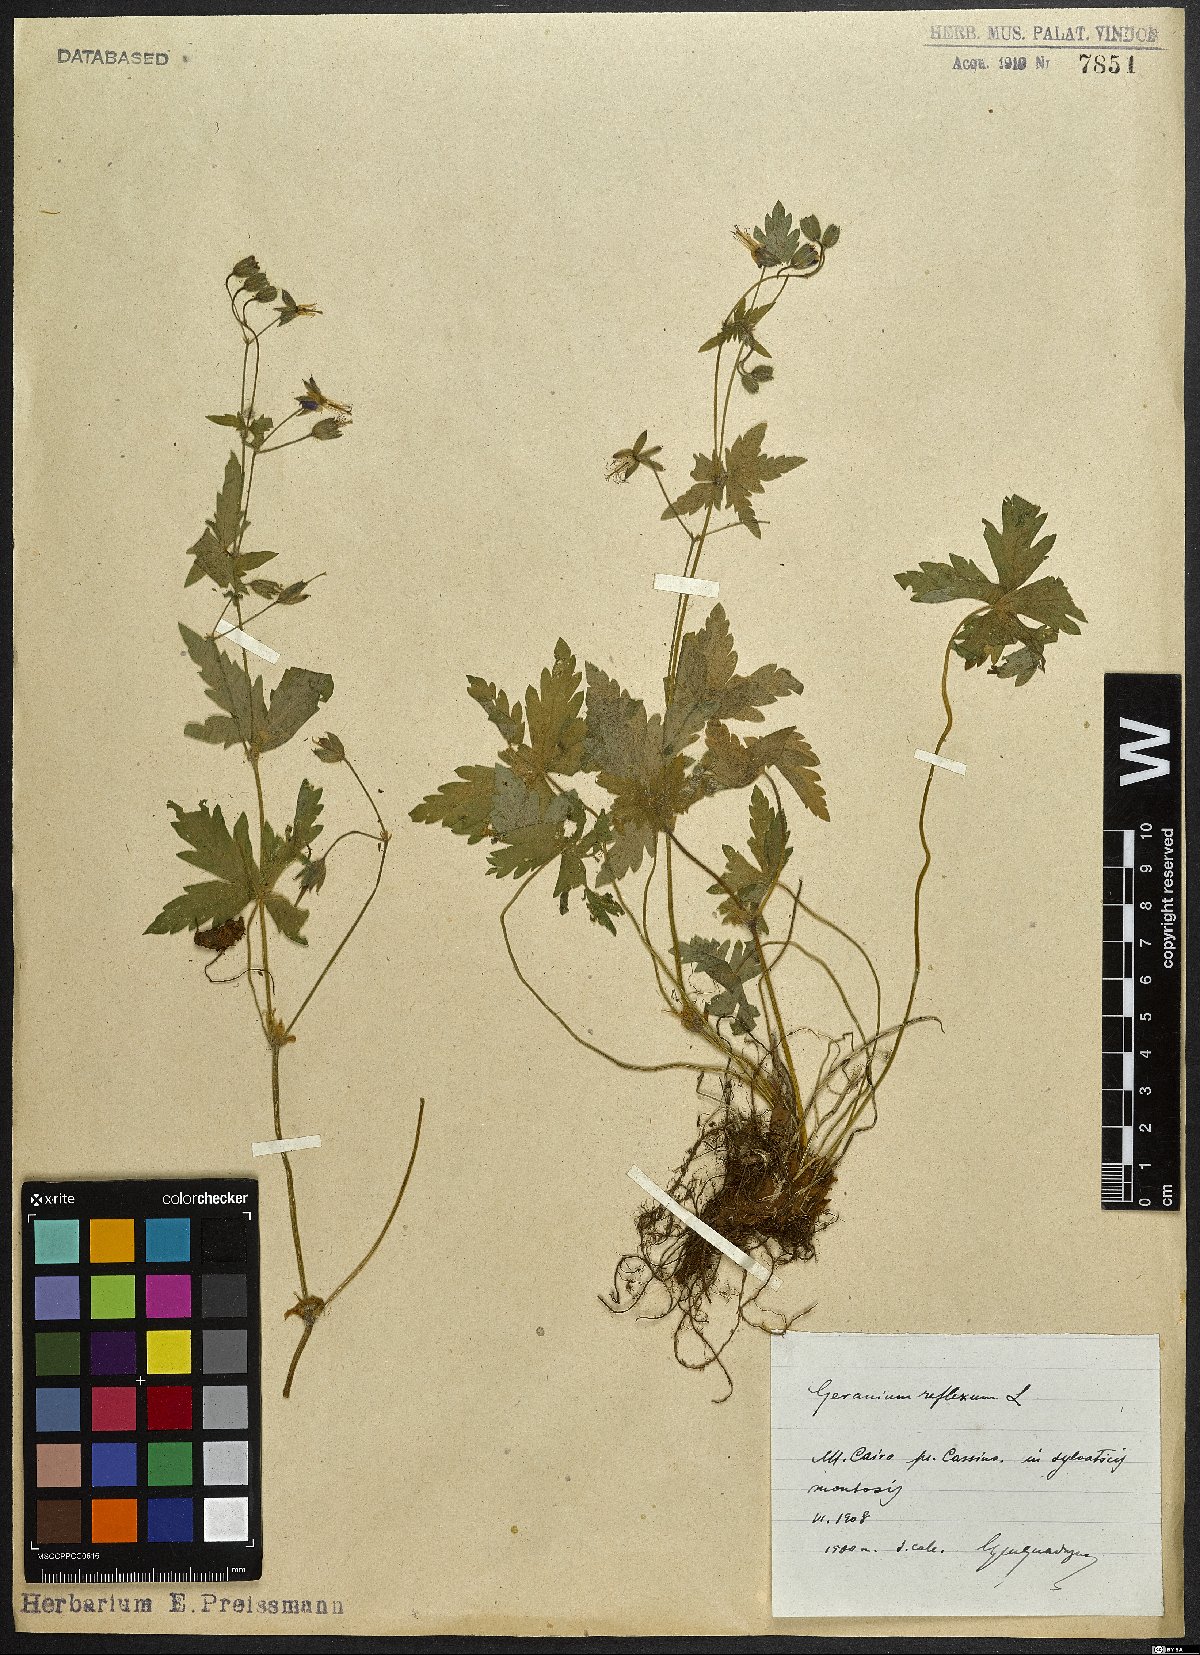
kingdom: Plantae
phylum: Tracheophyta
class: Magnoliopsida
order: Geraniales
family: Geraniaceae
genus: Geranium
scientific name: Geranium reflexum
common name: Reflexed crane's-bill
